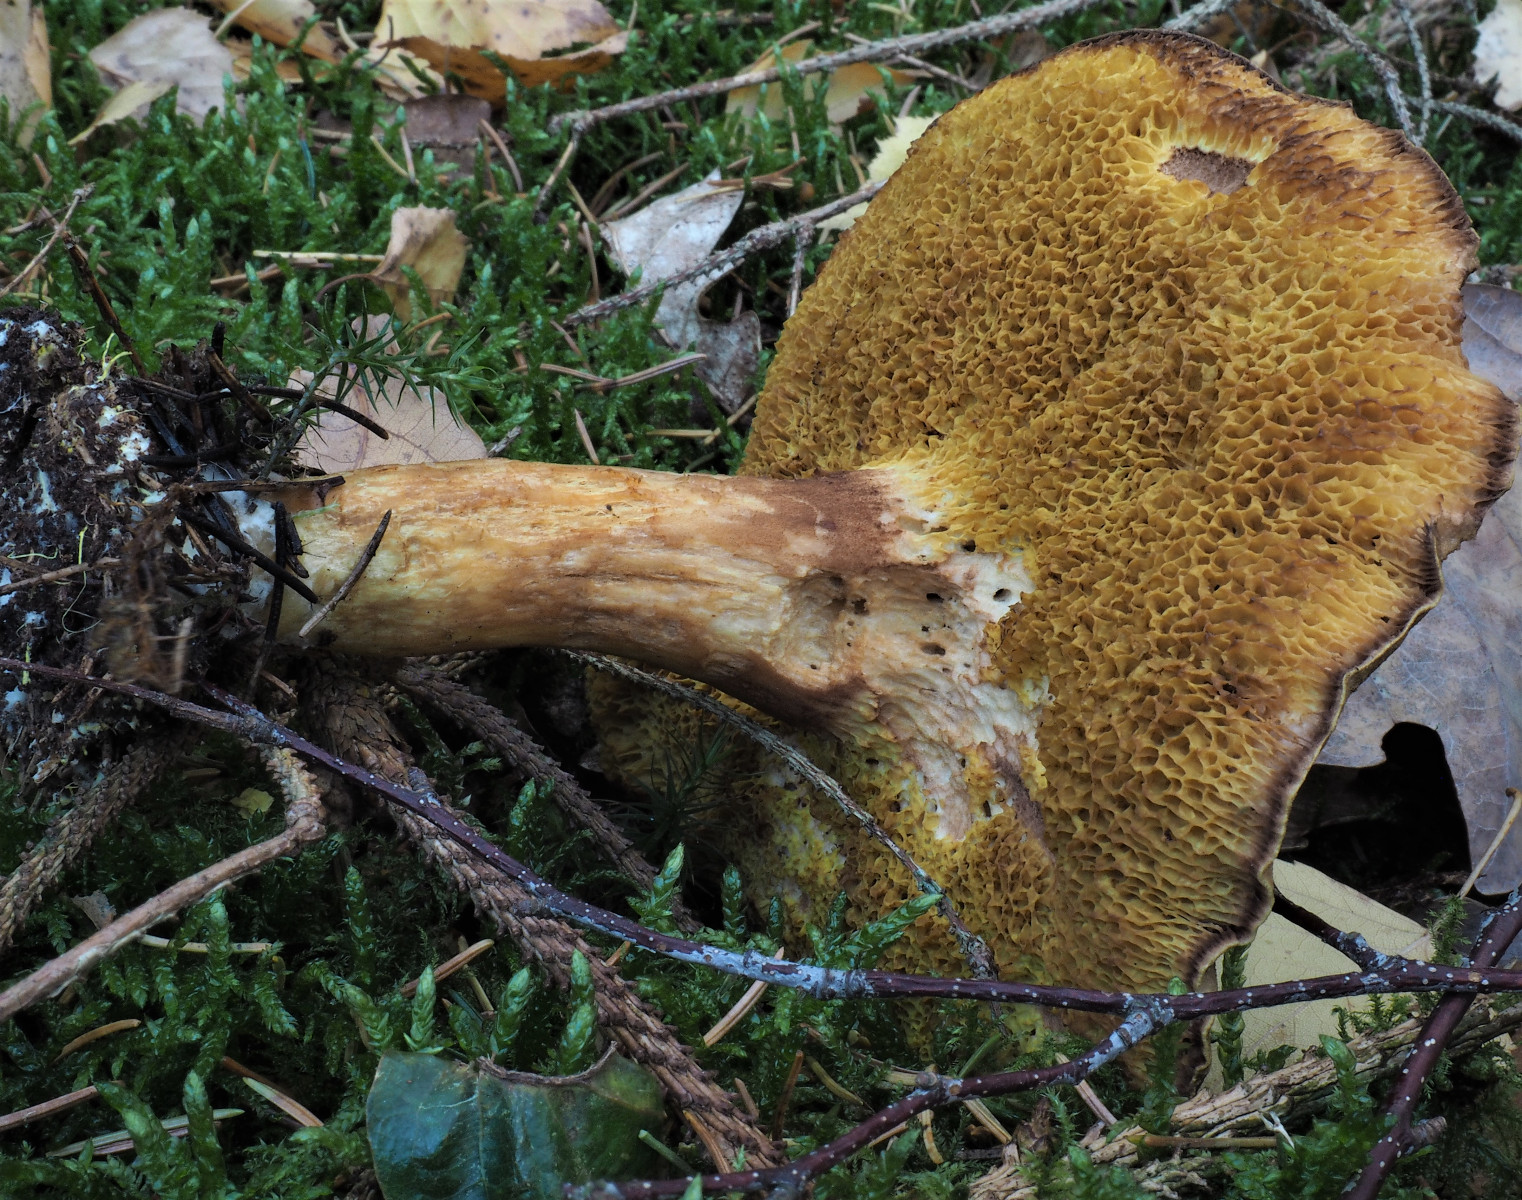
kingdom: Fungi
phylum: Basidiomycota
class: Agaricomycetes
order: Boletales
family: Boletaceae
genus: Xerocomus
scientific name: Xerocomus ferrugineus
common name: vaskeskinds-rørhat
